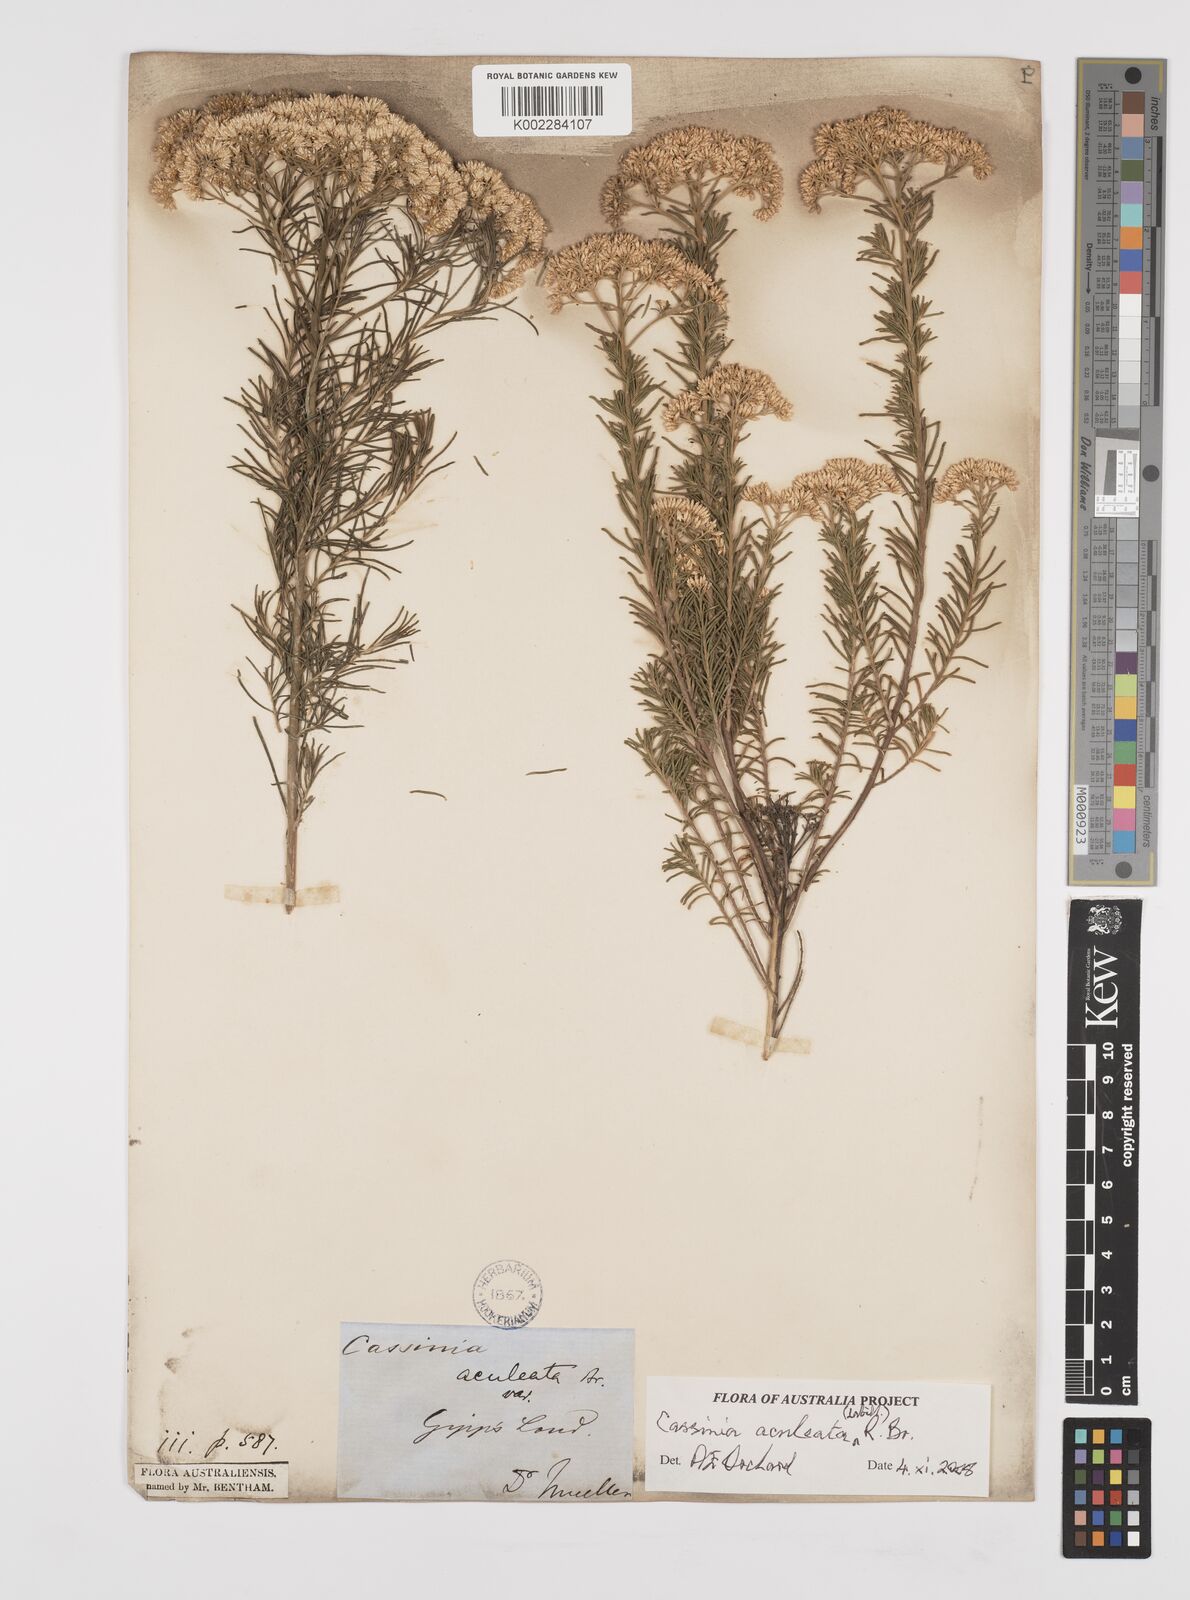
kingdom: Plantae
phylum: Tracheophyta
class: Magnoliopsida
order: Asterales
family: Asteraceae
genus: Cassinia
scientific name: Cassinia aculeata
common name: Australian tauhinu
